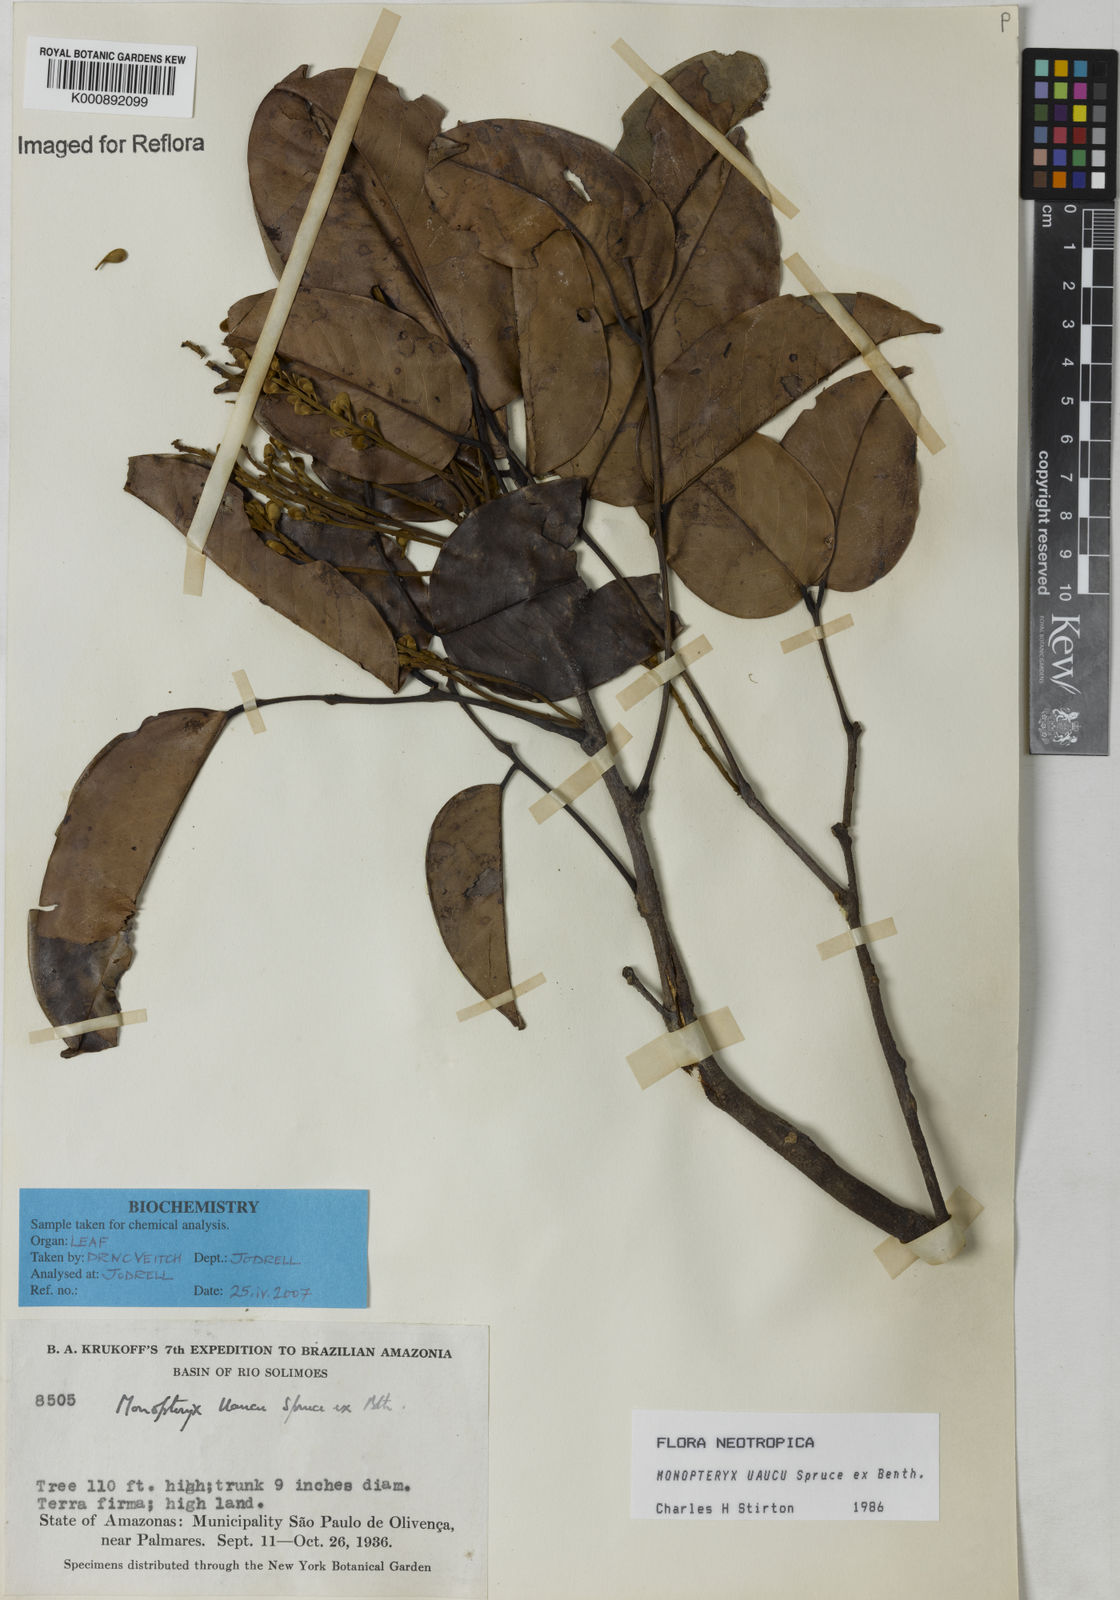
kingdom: Plantae
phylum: Tracheophyta
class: Magnoliopsida
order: Fabales
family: Fabaceae
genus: Monopteryx
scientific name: Monopteryx uaucu
